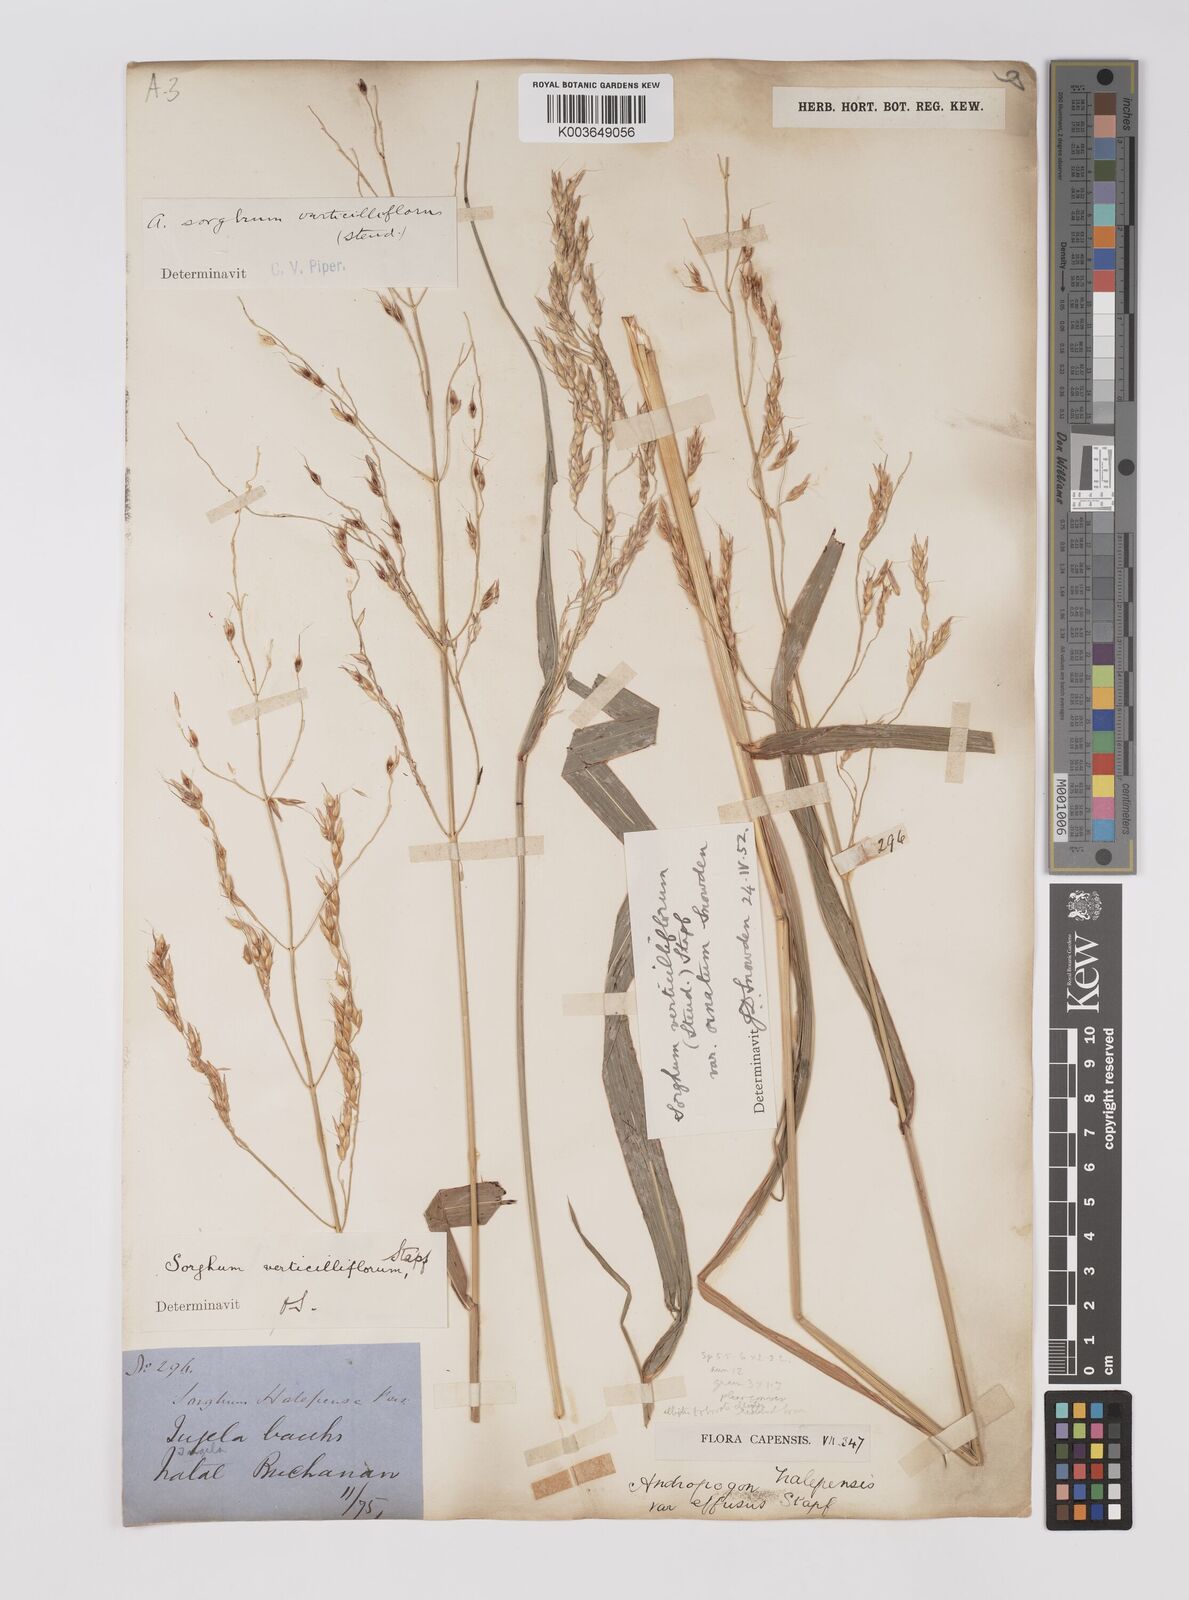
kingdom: Plantae
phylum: Tracheophyta
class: Liliopsida
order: Poales
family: Poaceae
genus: Sorghum
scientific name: Sorghum arundinaceum
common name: Sorghum
